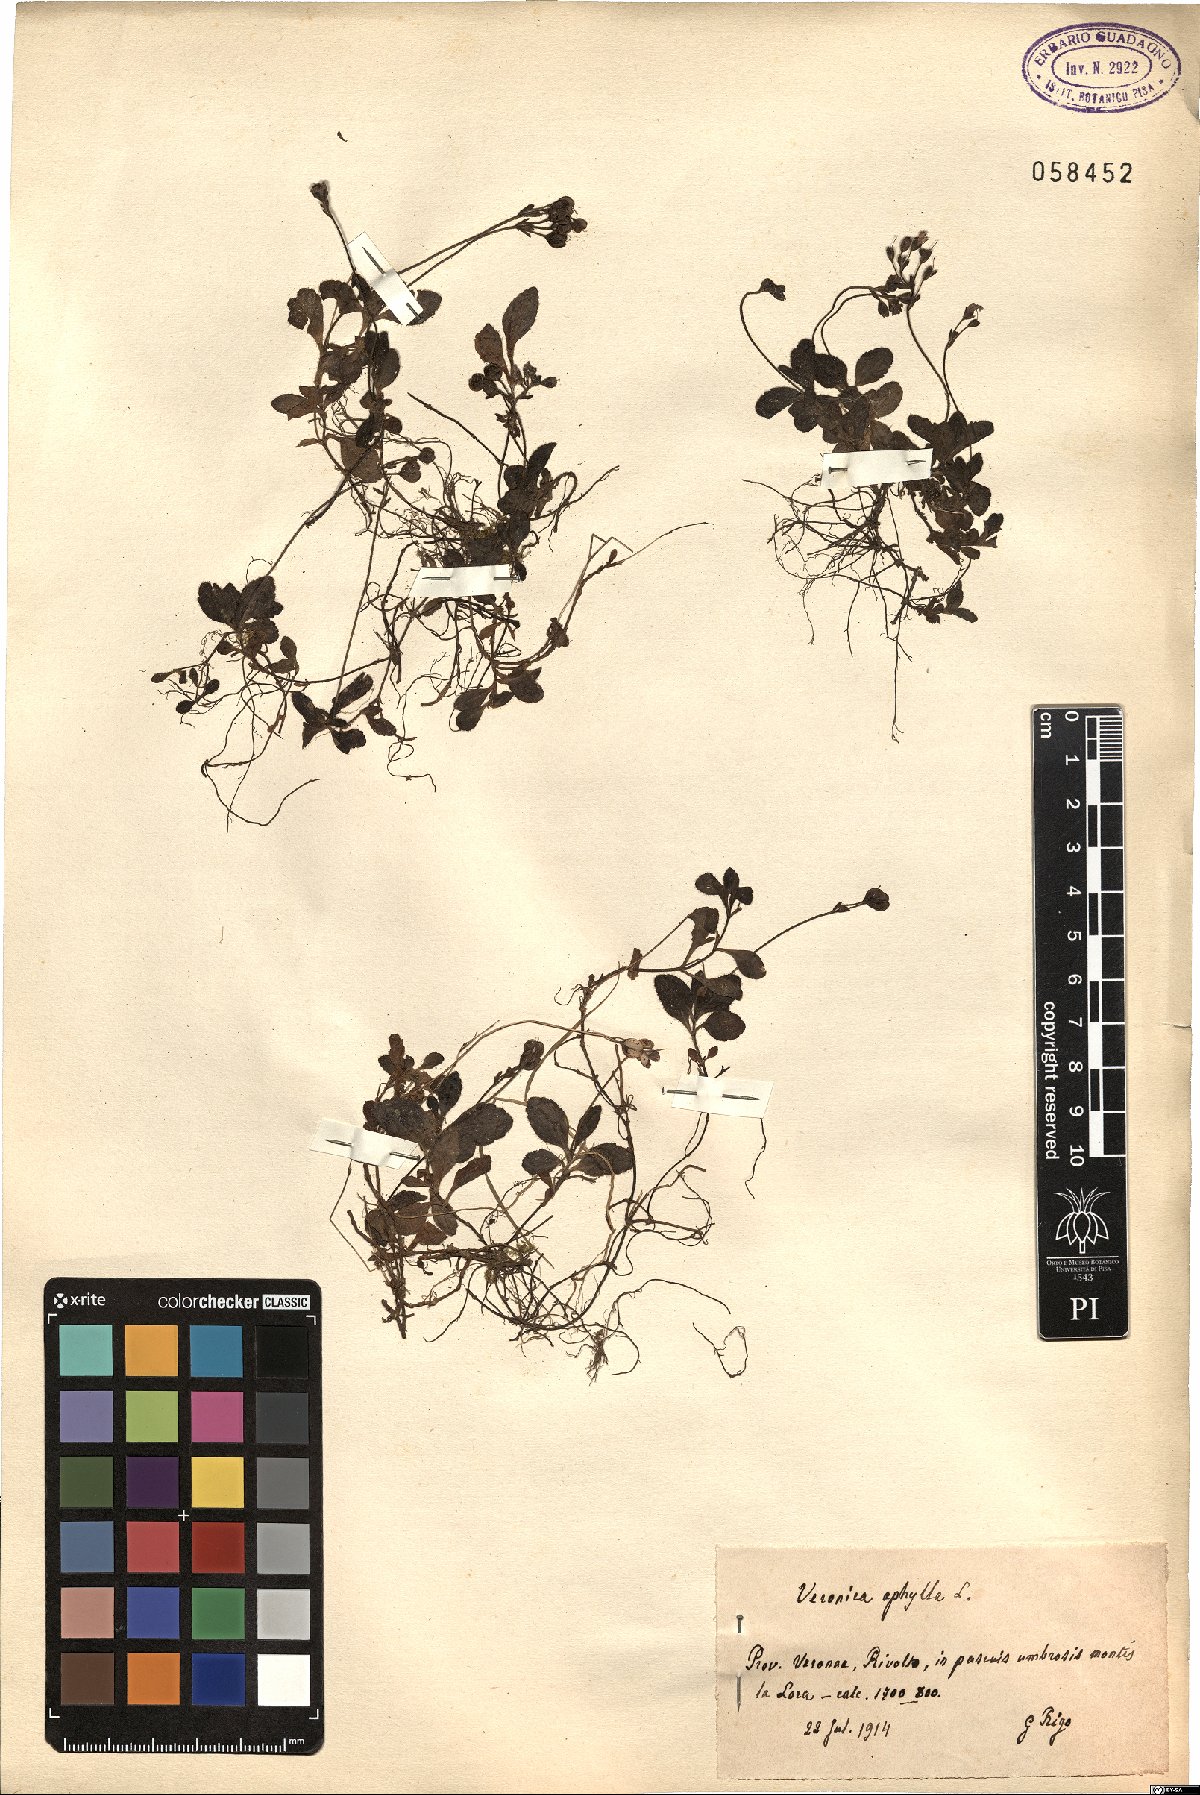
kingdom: Plantae
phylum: Tracheophyta
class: Magnoliopsida
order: Lamiales
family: Plantaginaceae
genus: Veronica
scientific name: Veronica aphylla
